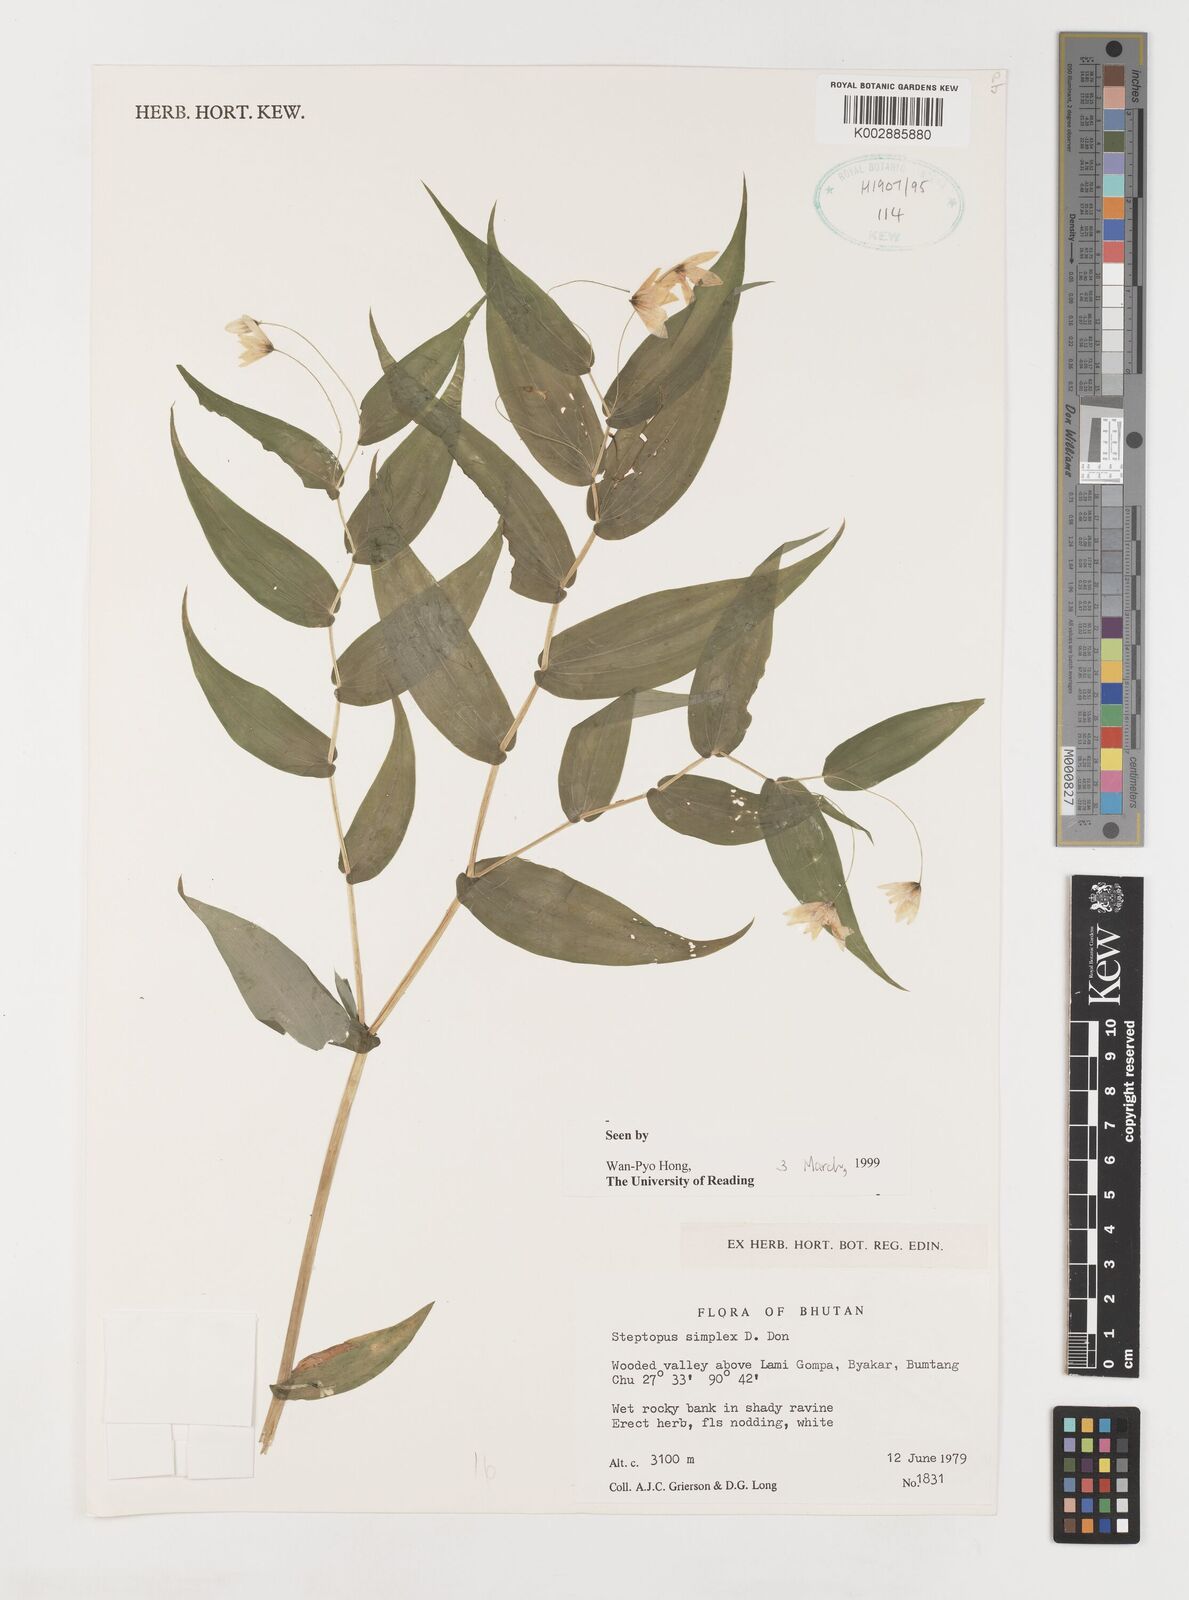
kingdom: Plantae
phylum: Tracheophyta
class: Liliopsida
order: Liliales
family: Liliaceae
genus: Streptopus
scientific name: Streptopus simplex
